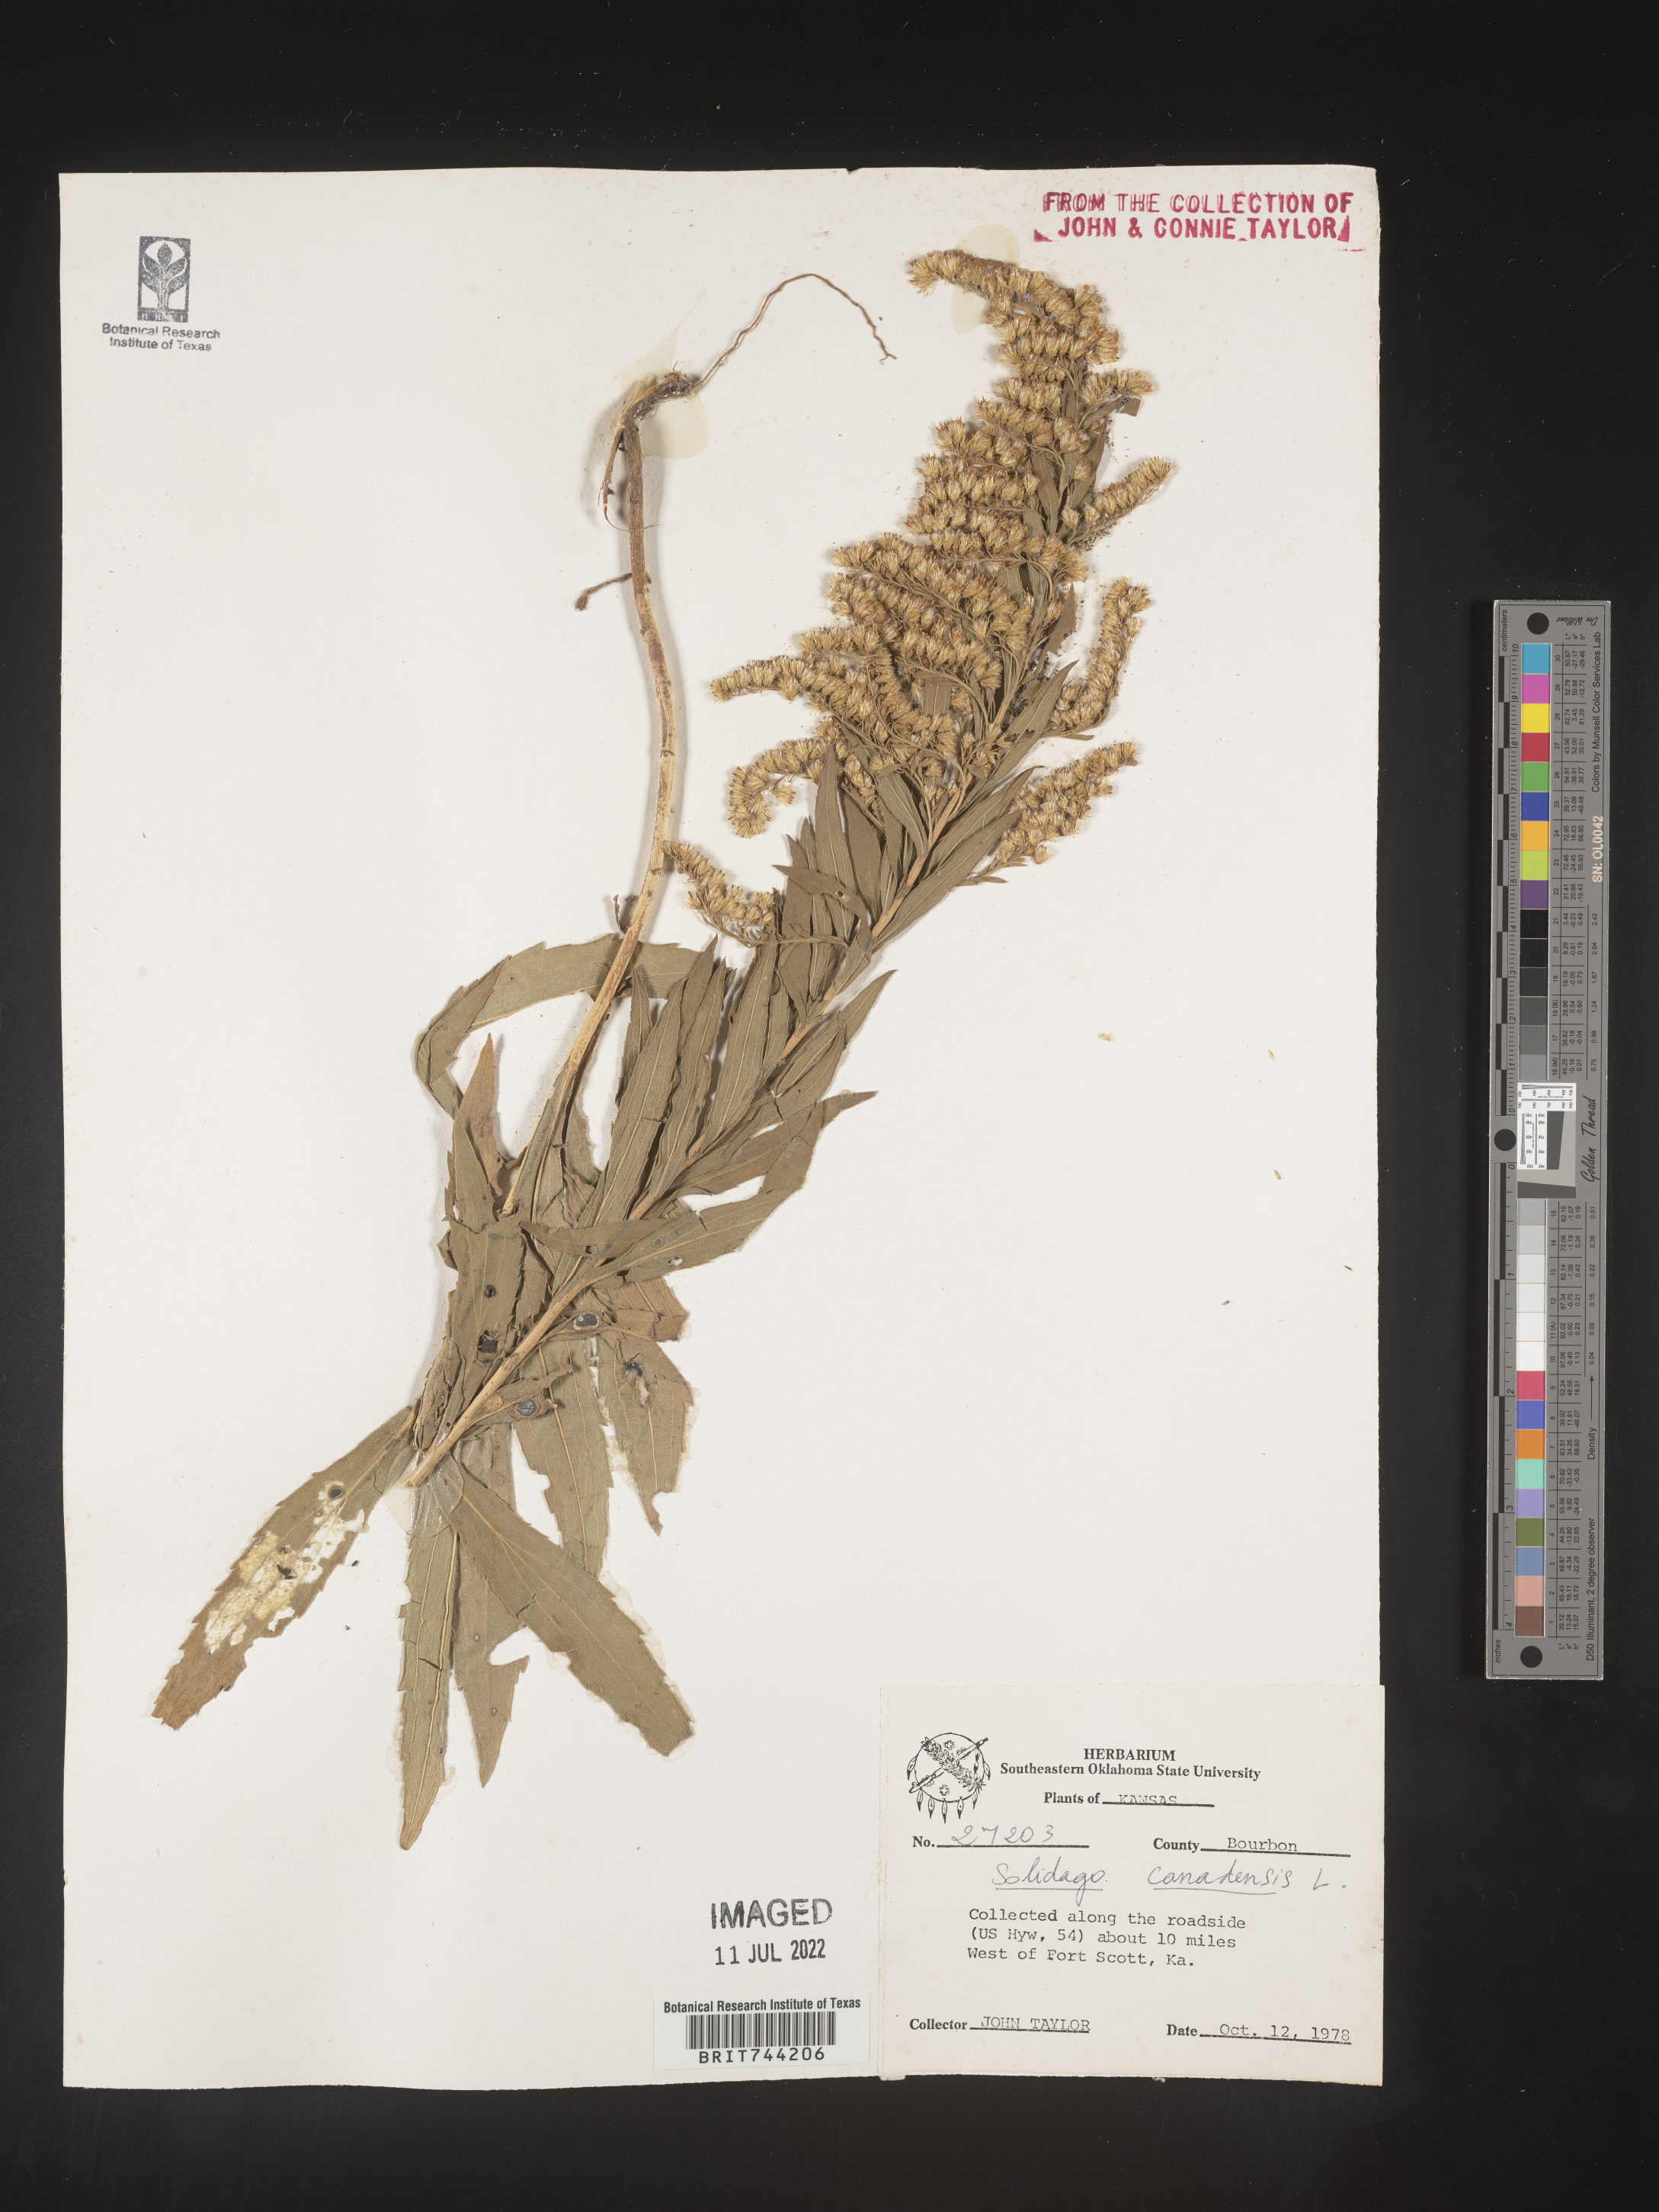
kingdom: Plantae
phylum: Tracheophyta
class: Magnoliopsida
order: Asterales
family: Asteraceae
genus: Solidago
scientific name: Solidago altissima
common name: Late goldenrod
